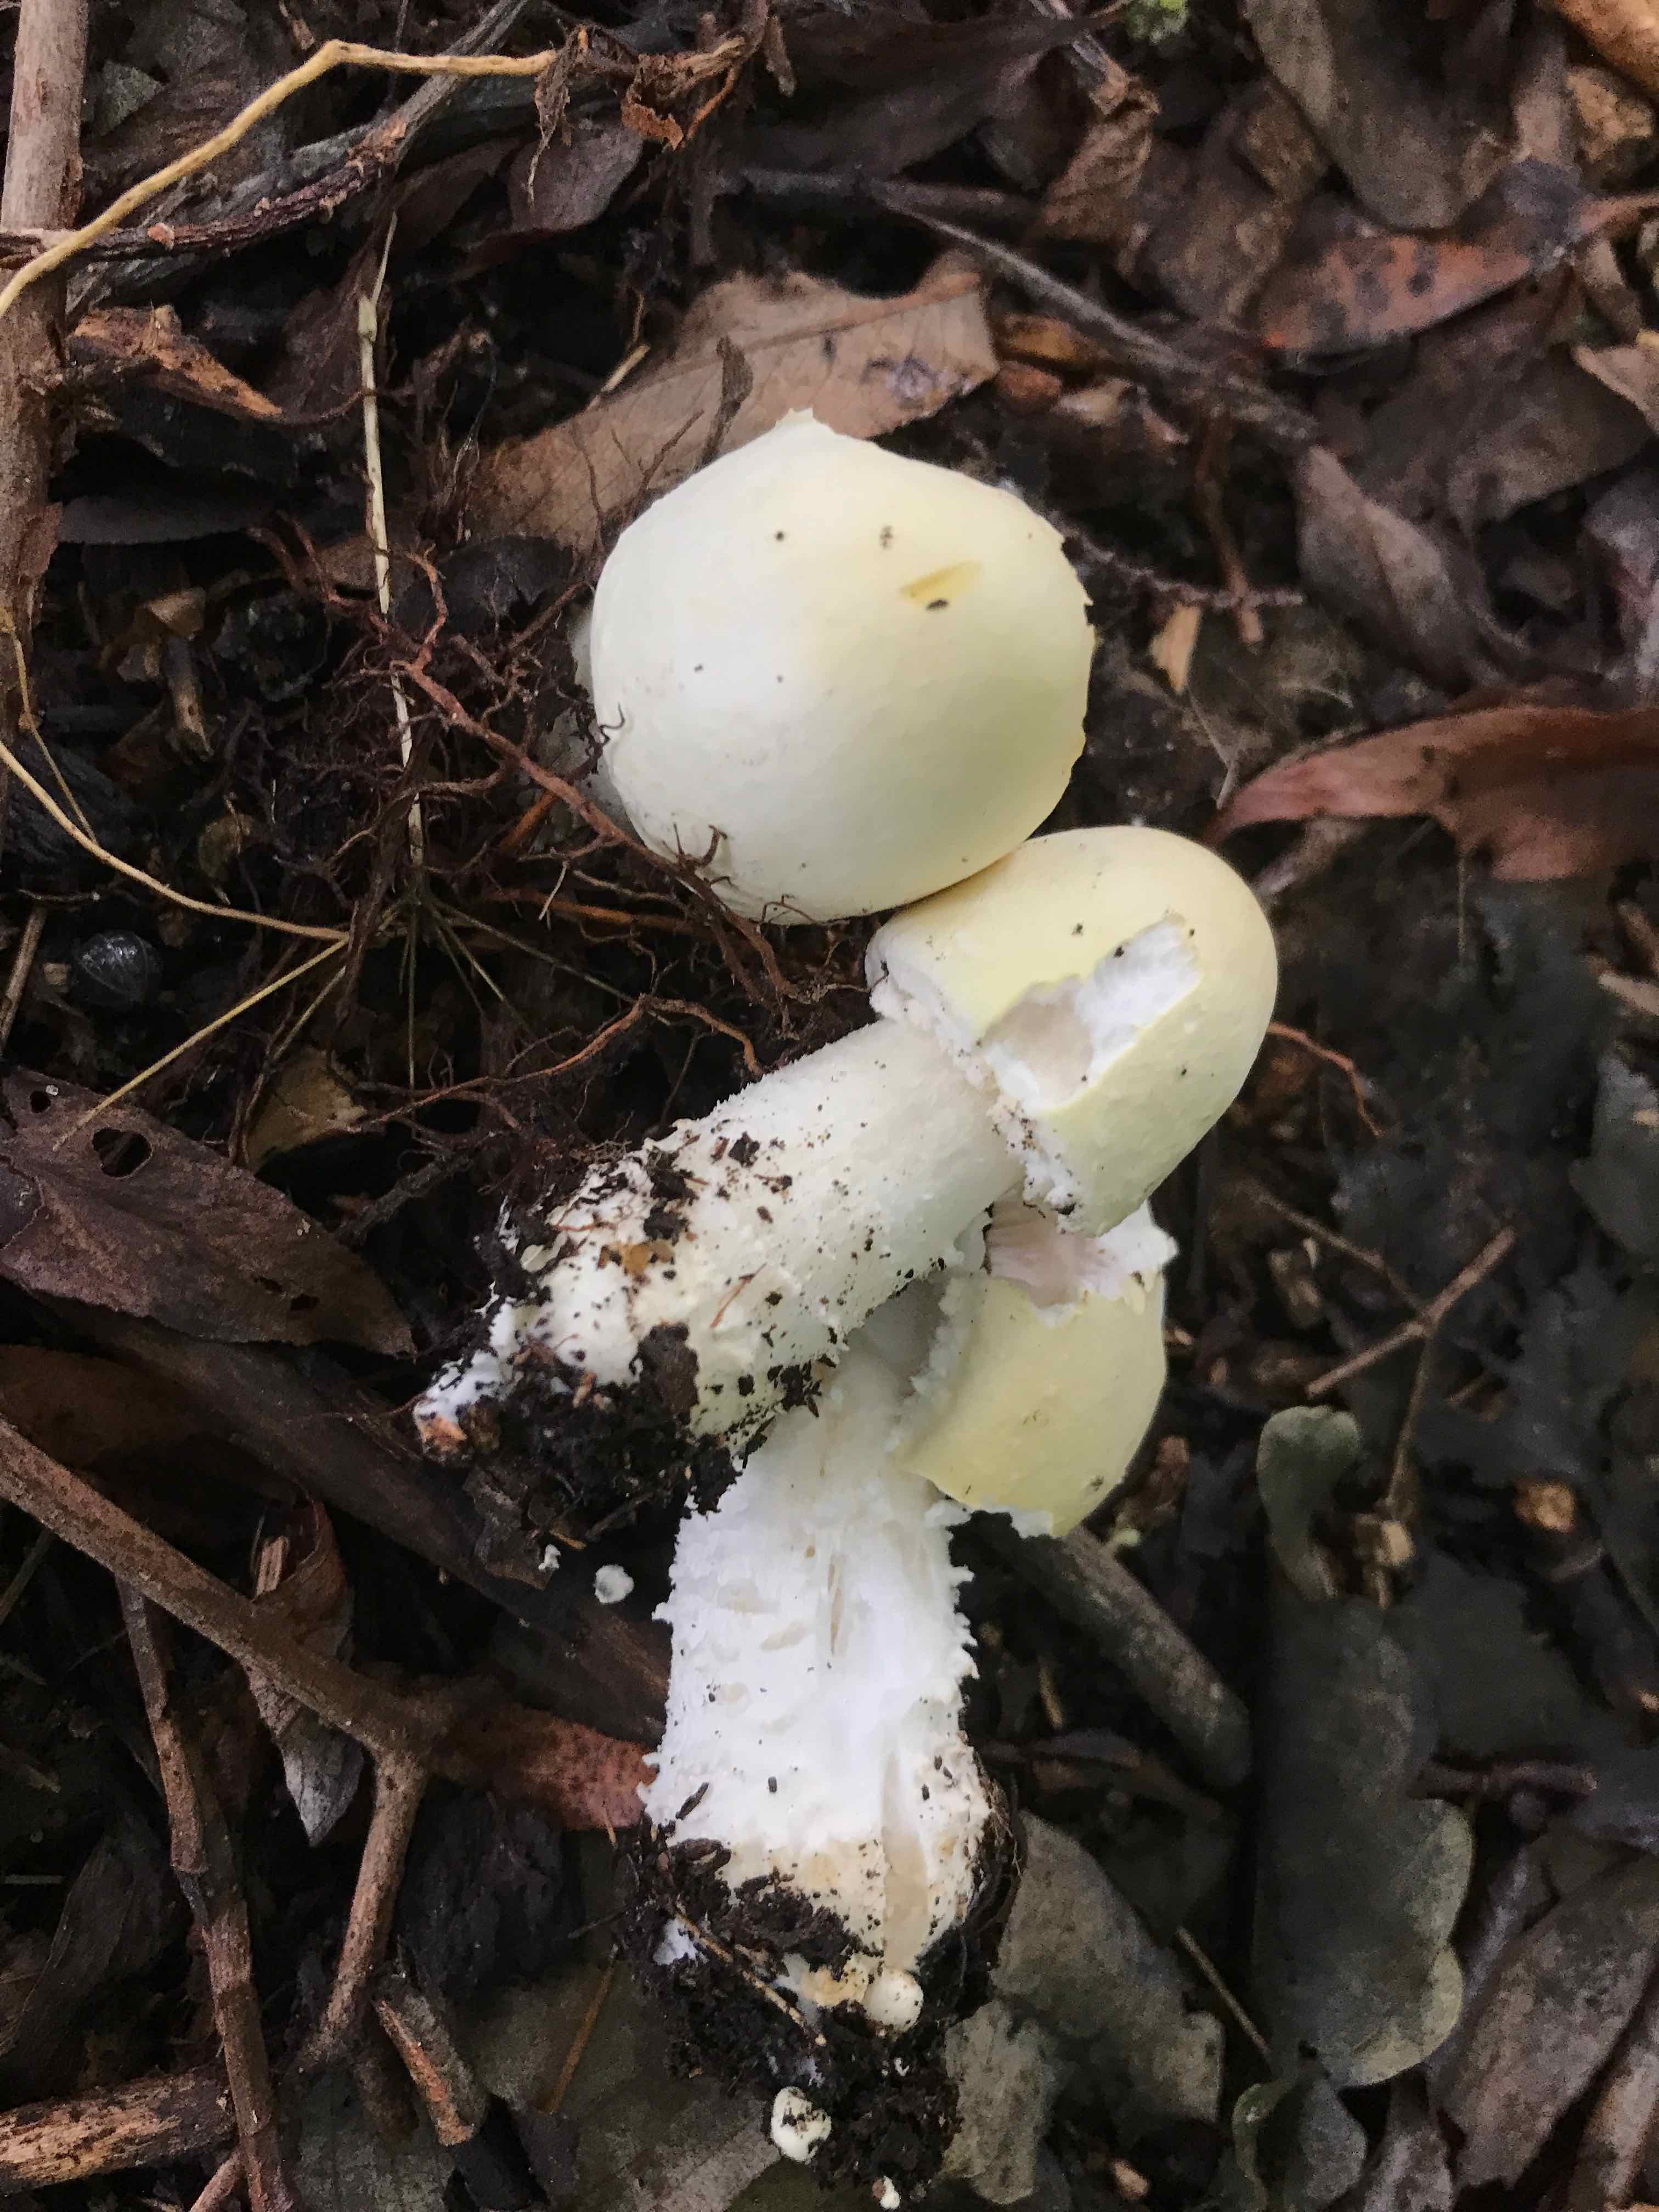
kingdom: Fungi
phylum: Basidiomycota
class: Agaricomycetes
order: Agaricales
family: Agaricaceae
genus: Agaricus
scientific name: Agaricus arvensis
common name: ager-champignon
